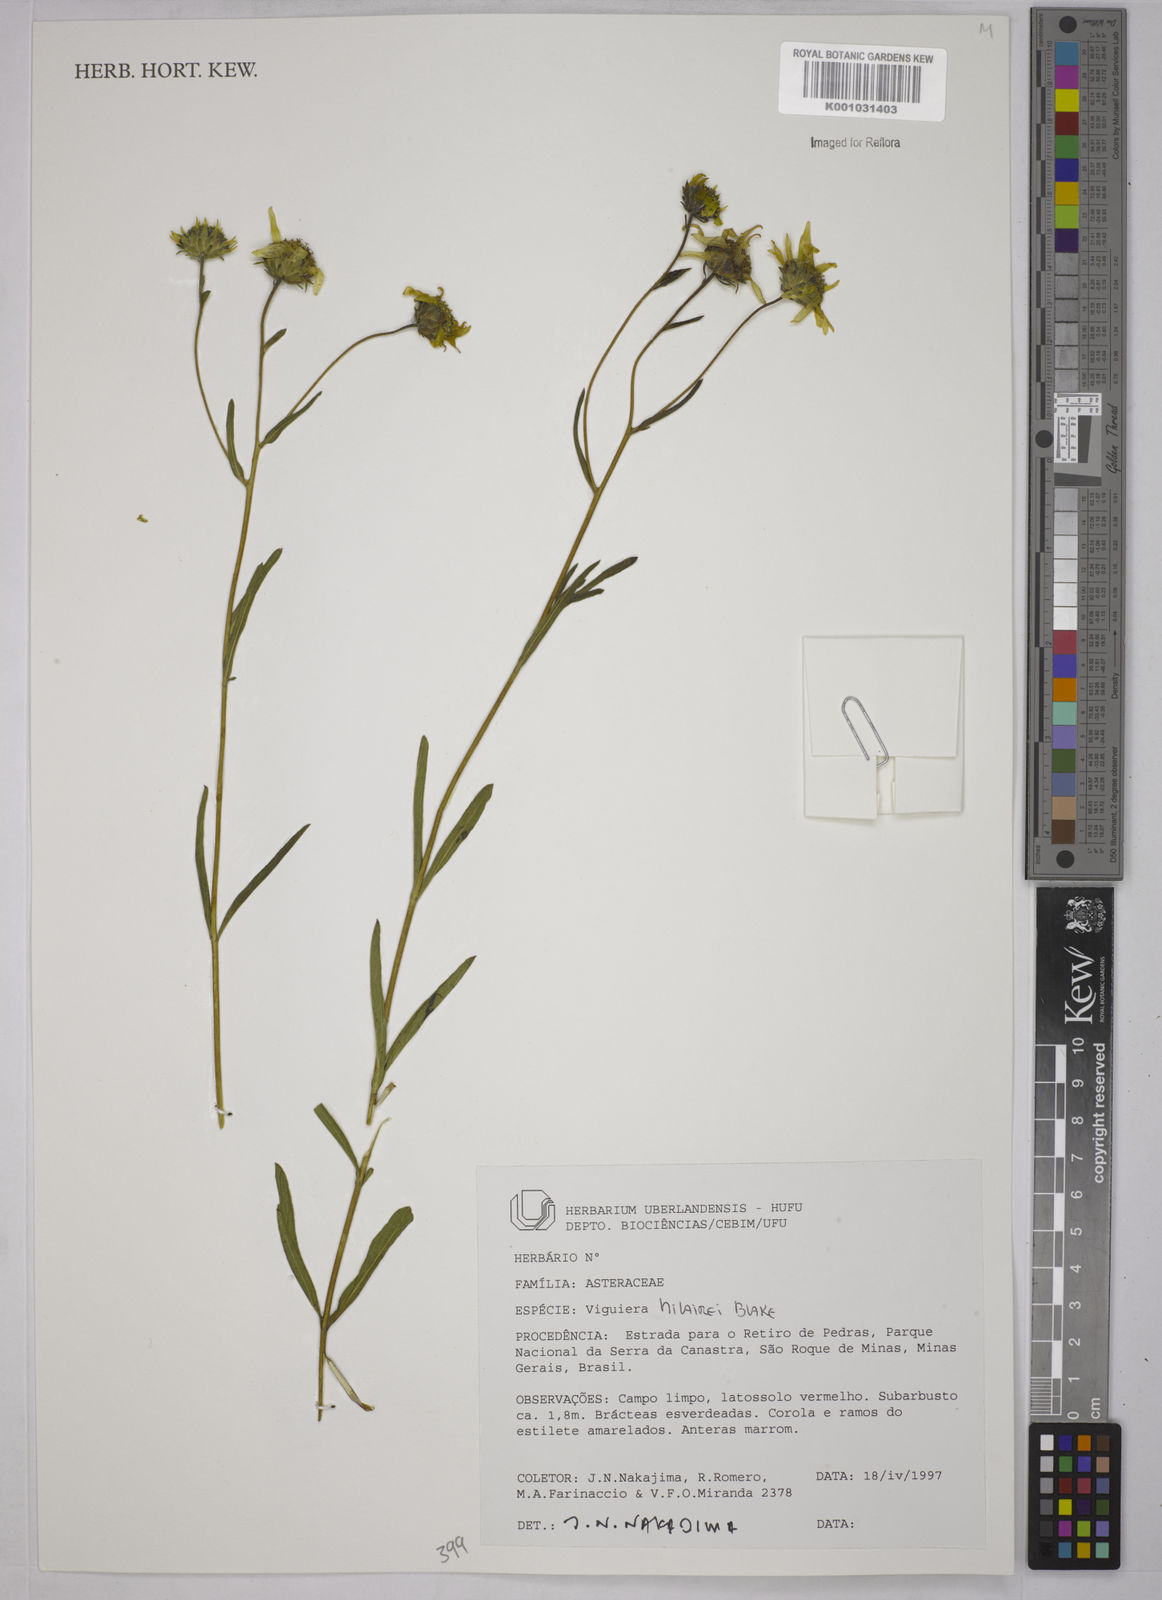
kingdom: Plantae
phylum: Tracheophyta
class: Magnoliopsida
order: Asterales
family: Asteraceae
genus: Aldama
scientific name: Aldama hilairei
